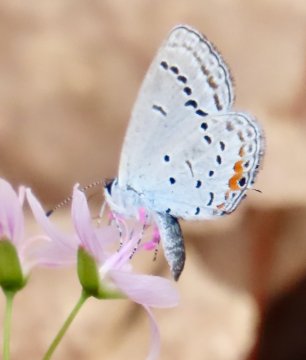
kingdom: Animalia
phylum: Arthropoda
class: Insecta
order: Lepidoptera
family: Lycaenidae
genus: Elkalyce
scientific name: Elkalyce comyntas
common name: Eastern Tailed-Blue
